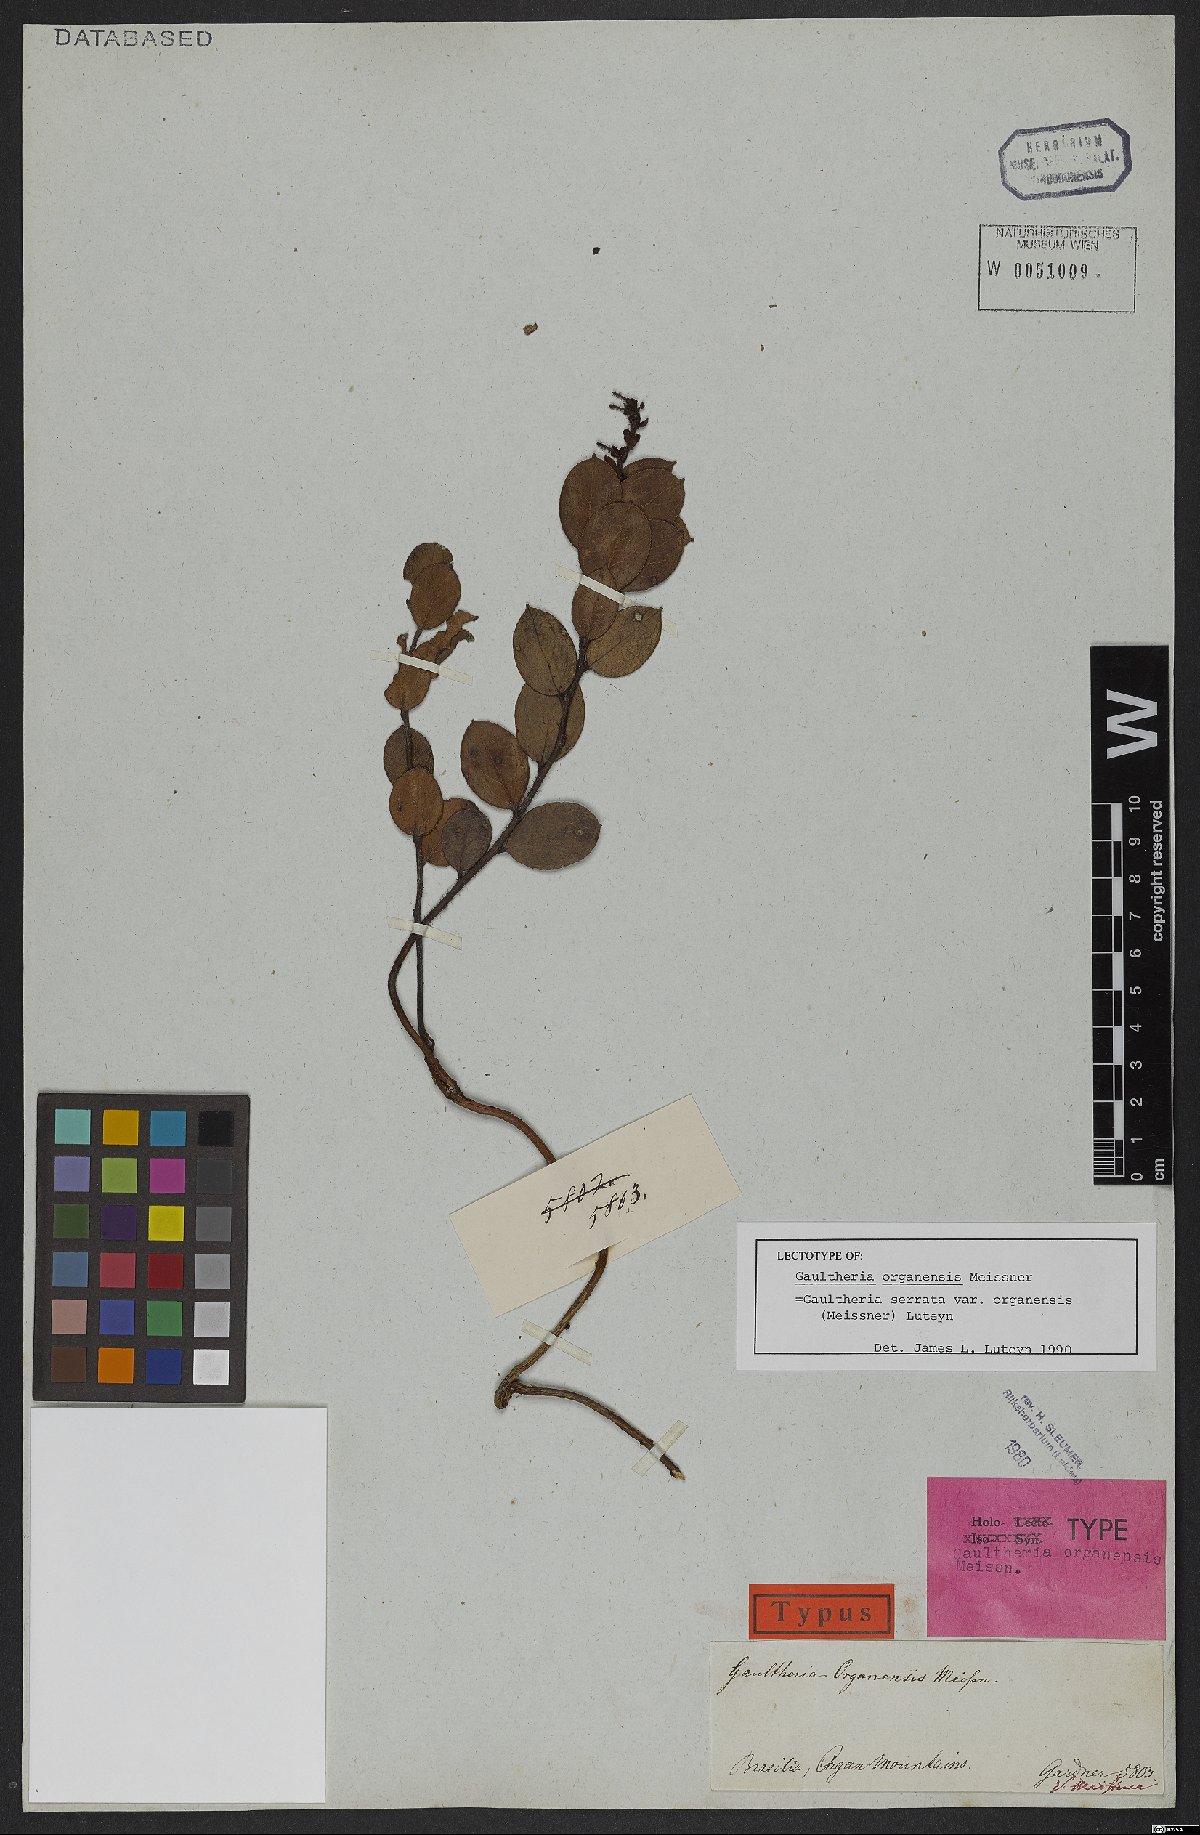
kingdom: Plantae
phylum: Tracheophyta
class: Magnoliopsida
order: Ericales
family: Ericaceae
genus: Gaultheria
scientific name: Gaultheria serrata
